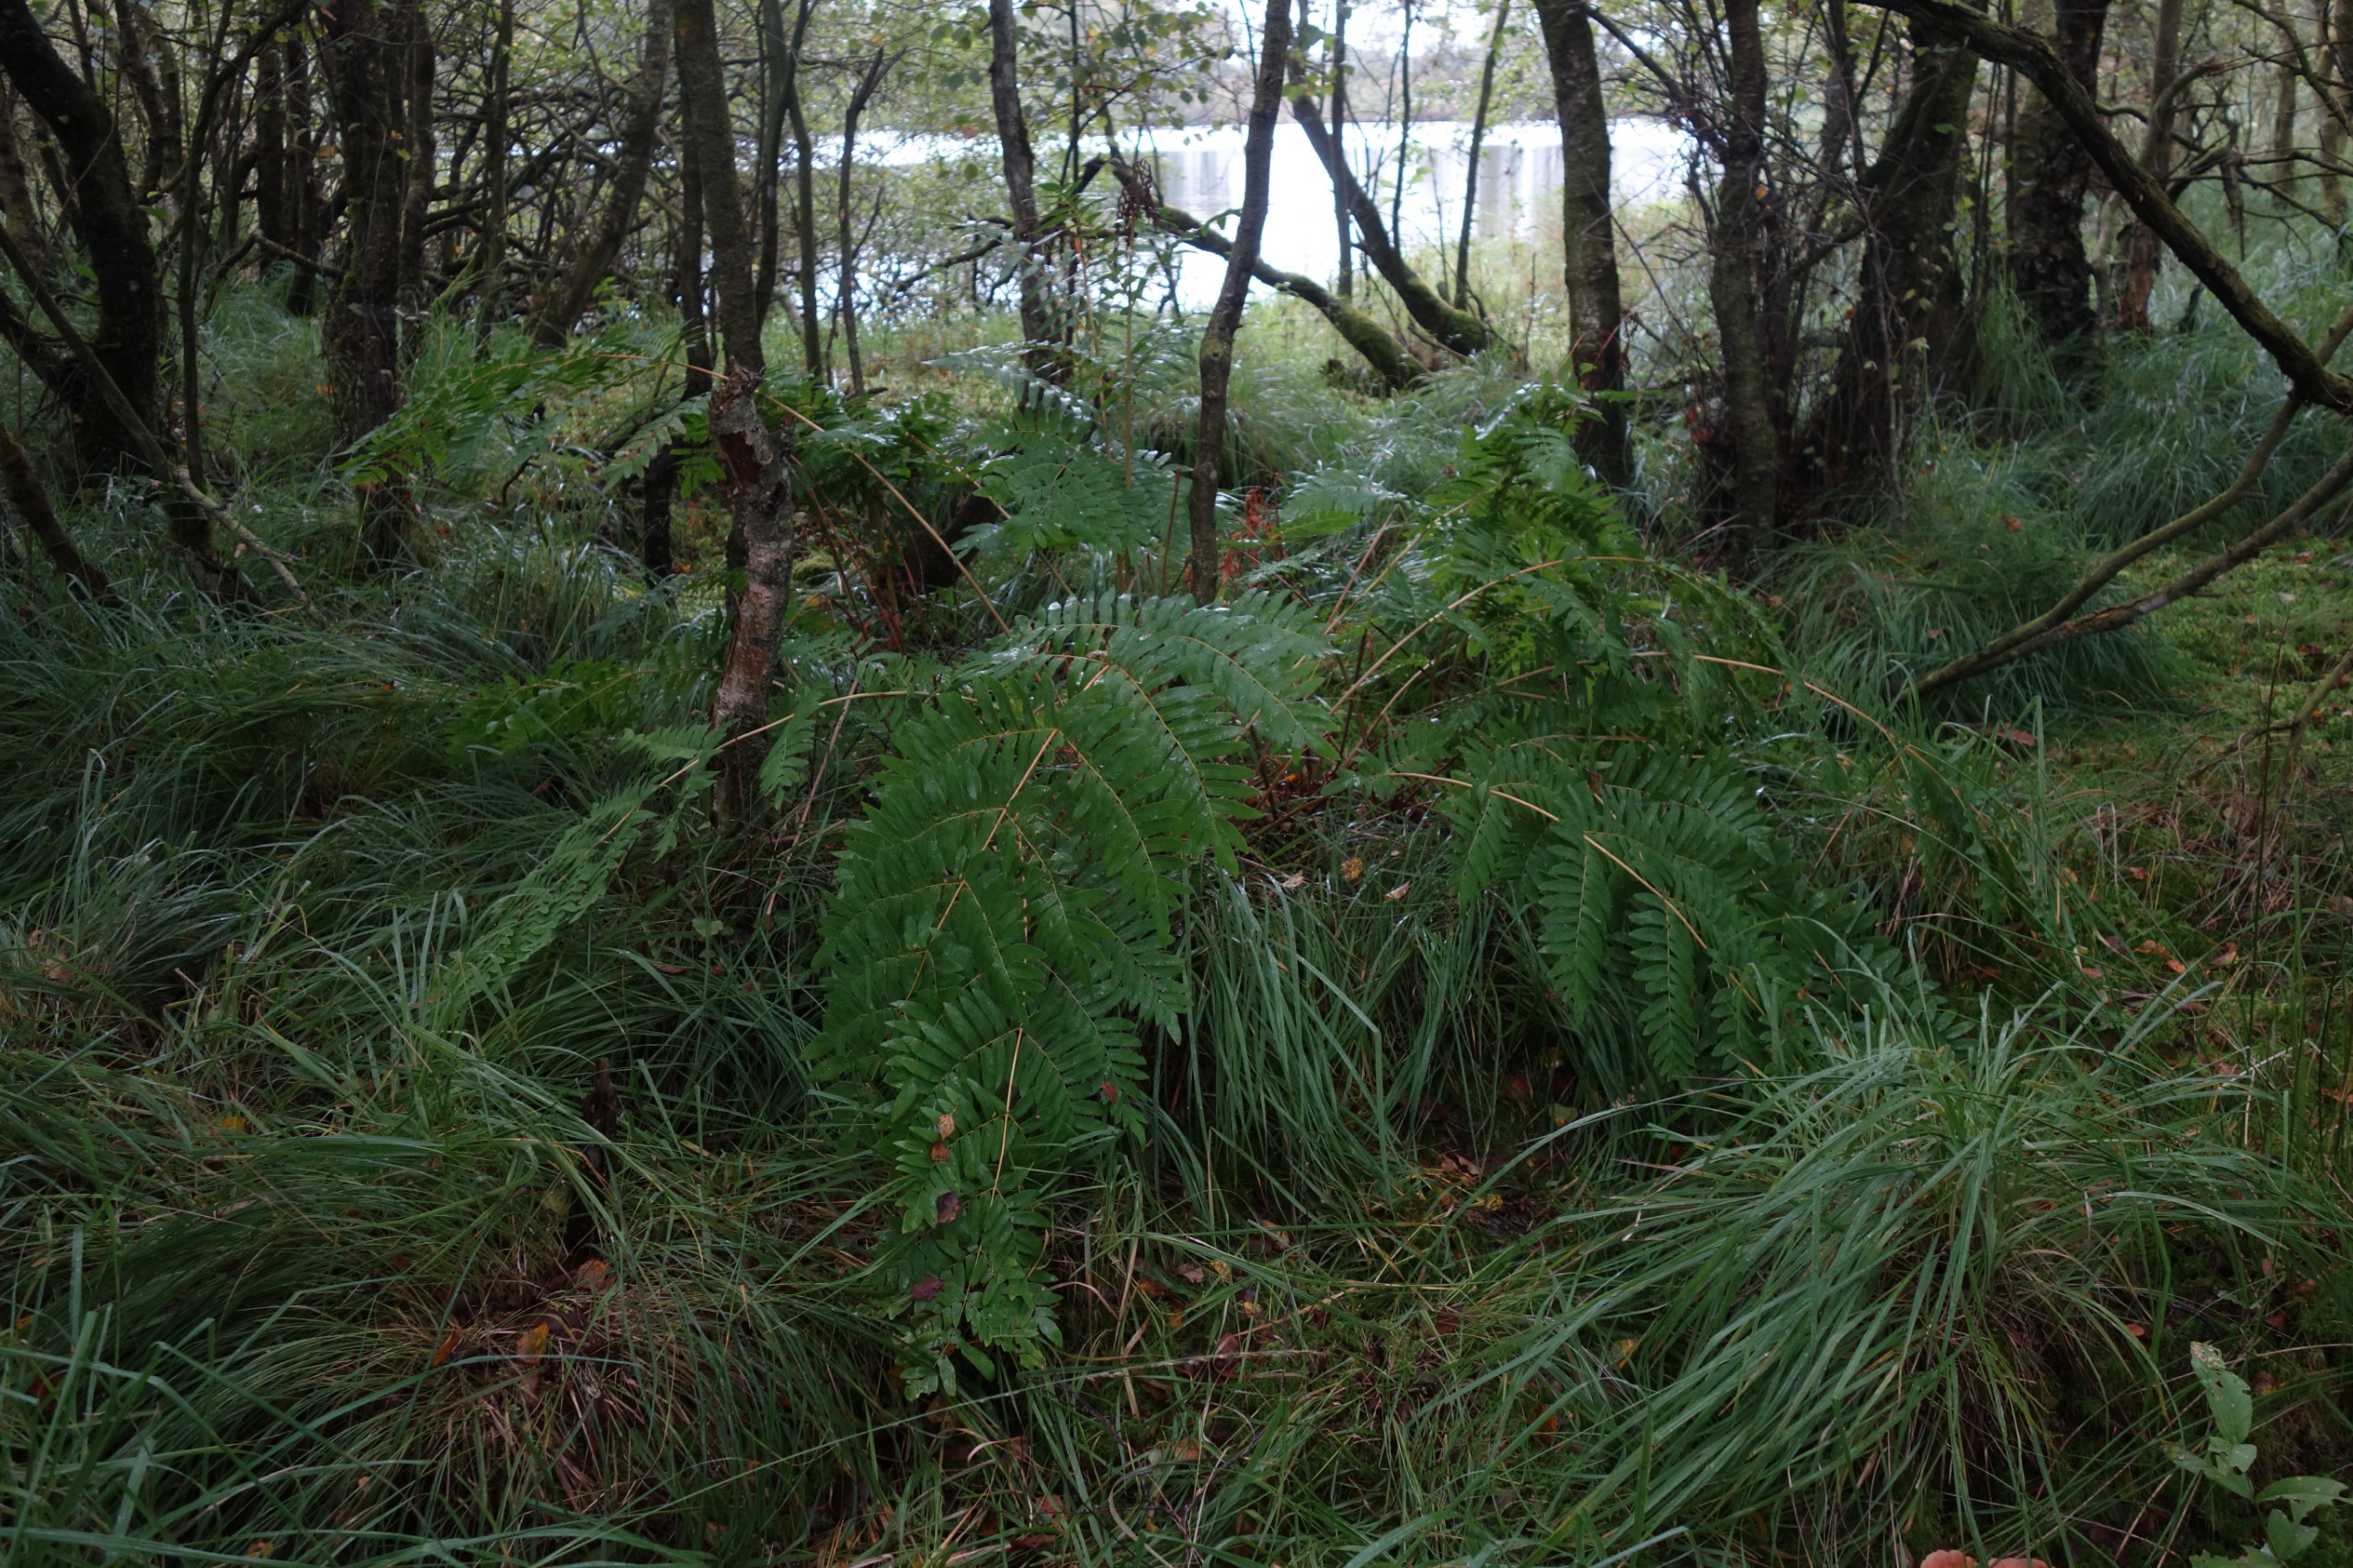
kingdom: Plantae
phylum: Tracheophyta
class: Polypodiopsida
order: Osmundales
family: Osmundaceae
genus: Osmunda
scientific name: Osmunda regalis
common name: Kongebregne
